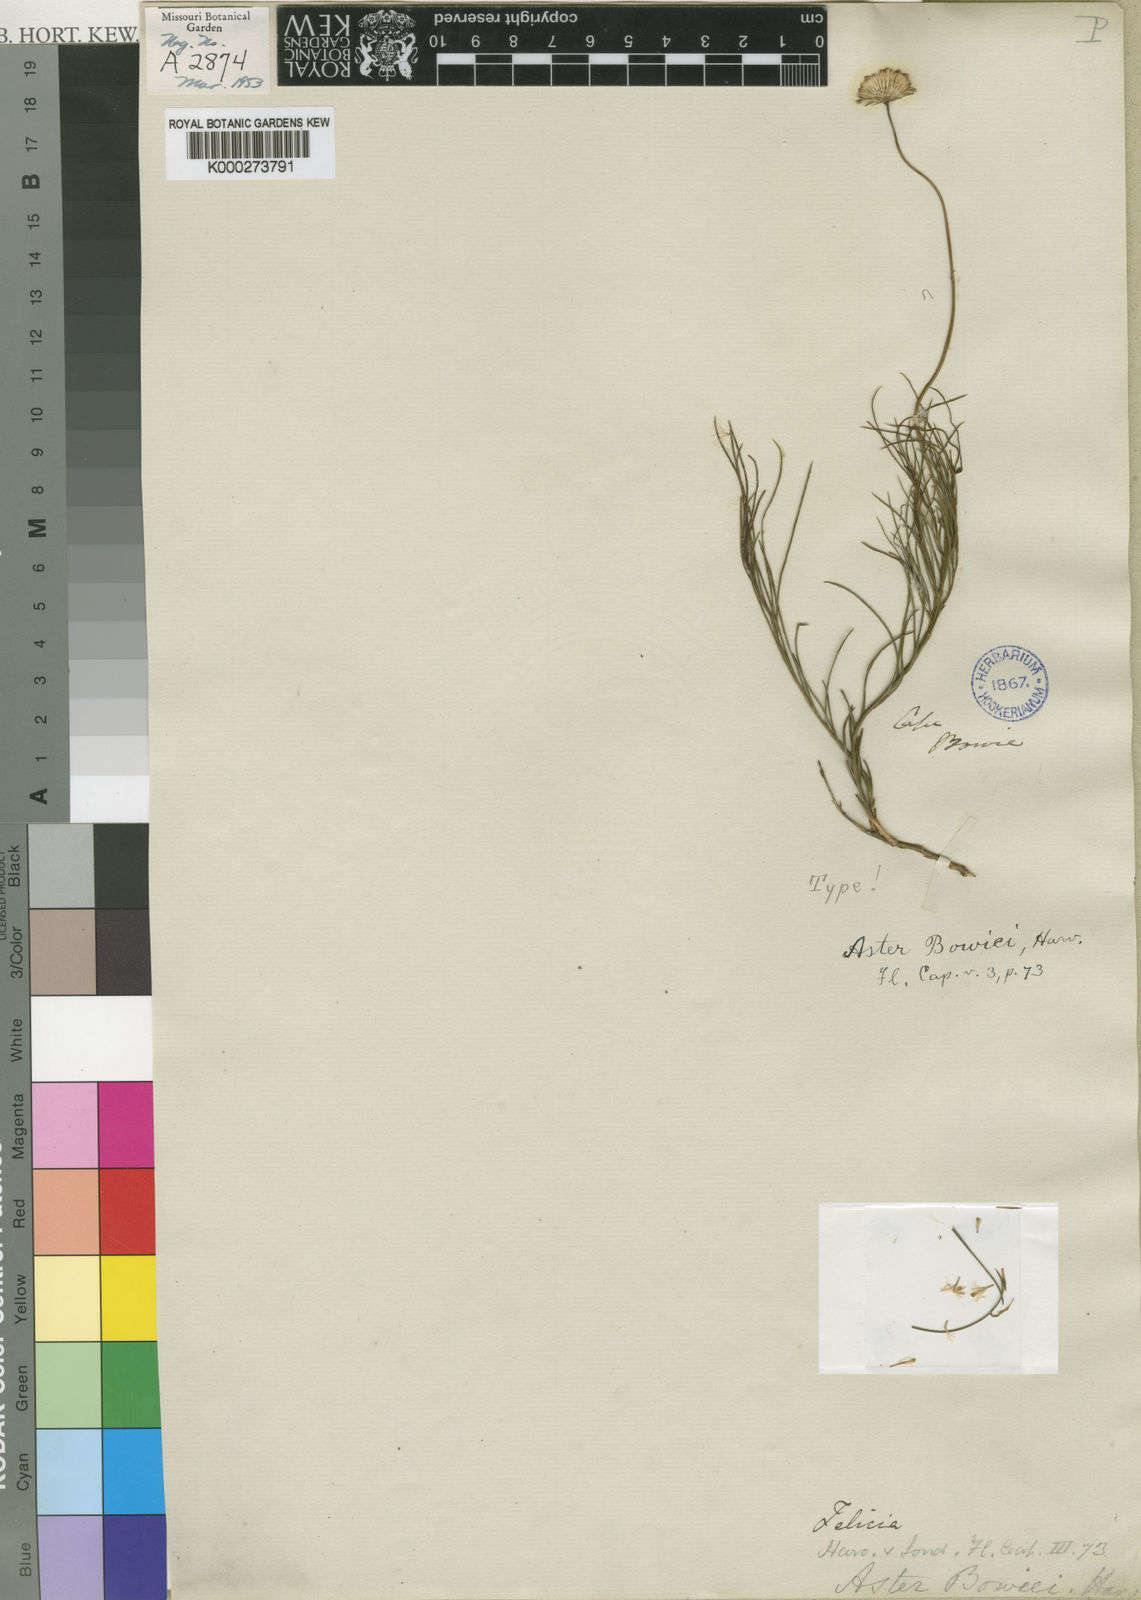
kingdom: Plantae
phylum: Tracheophyta
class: Magnoliopsida
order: Asterales
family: Asteraceae
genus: Felicia
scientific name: Felicia
